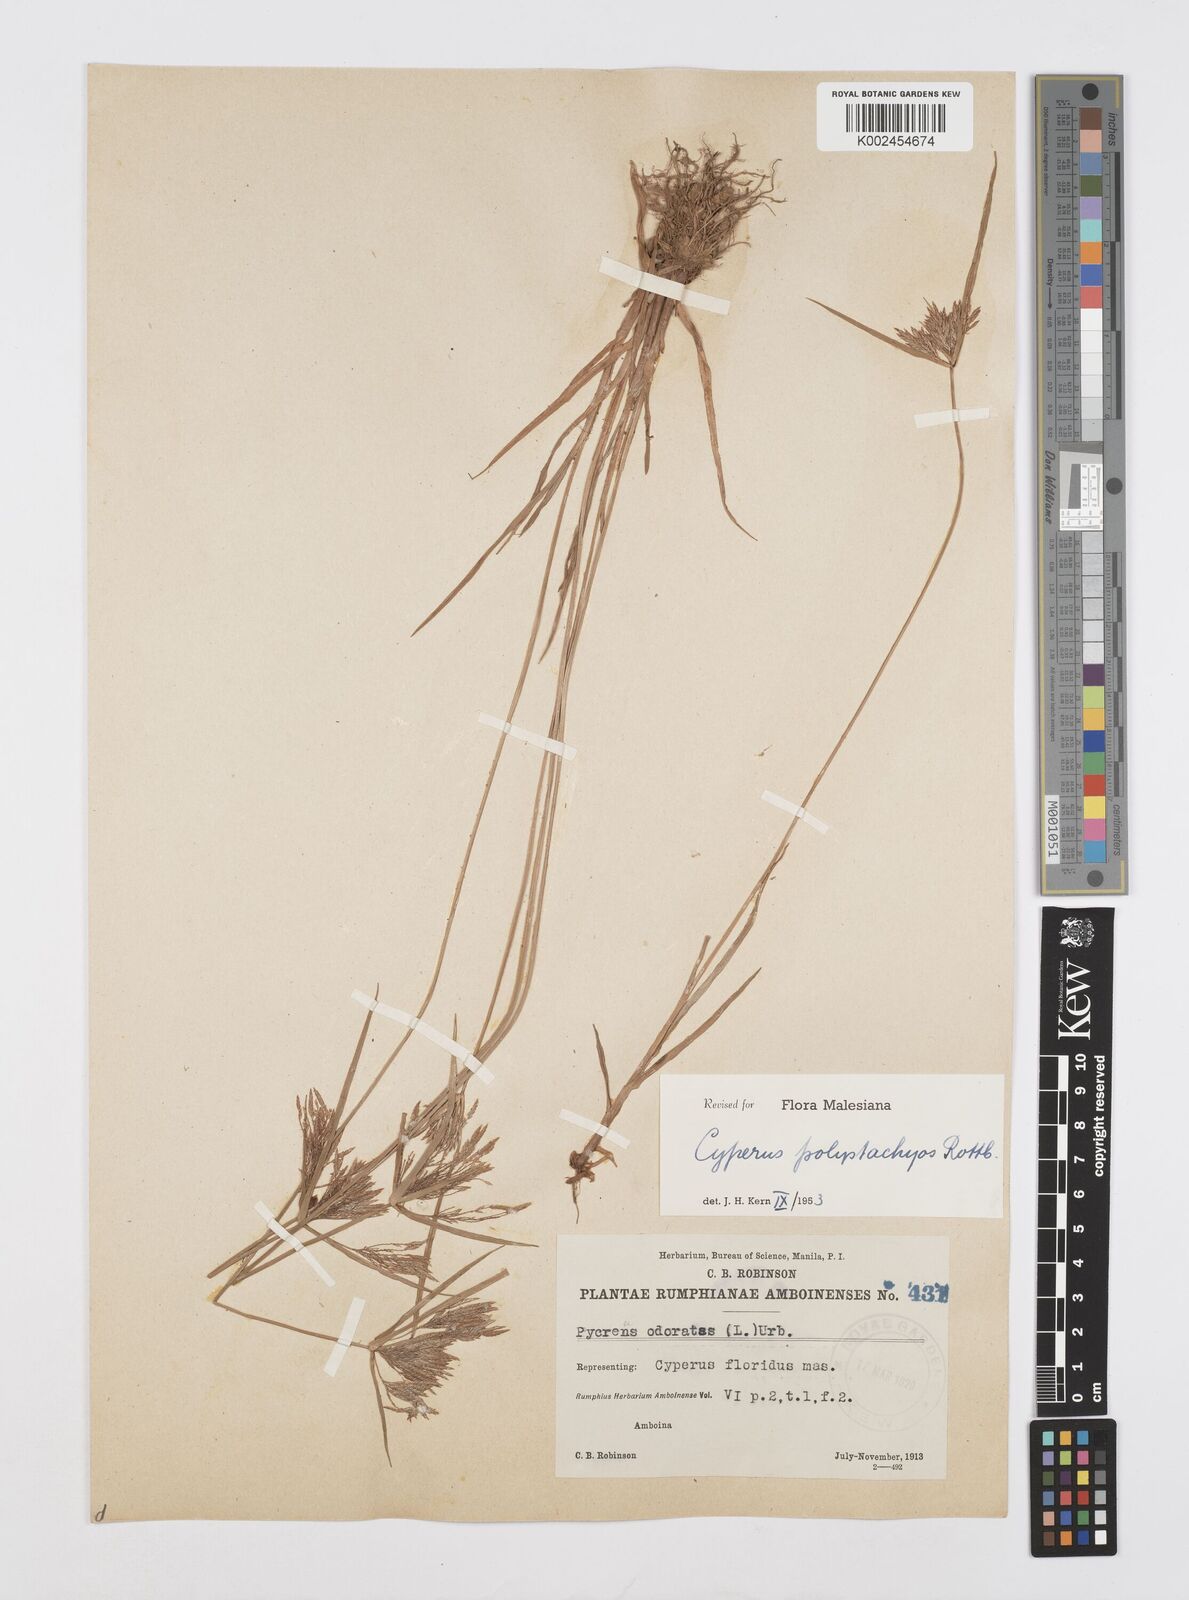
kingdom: Plantae
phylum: Tracheophyta
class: Liliopsida
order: Poales
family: Cyperaceae
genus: Cyperus
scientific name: Cyperus polystachyos
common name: Bunchy flat sedge
